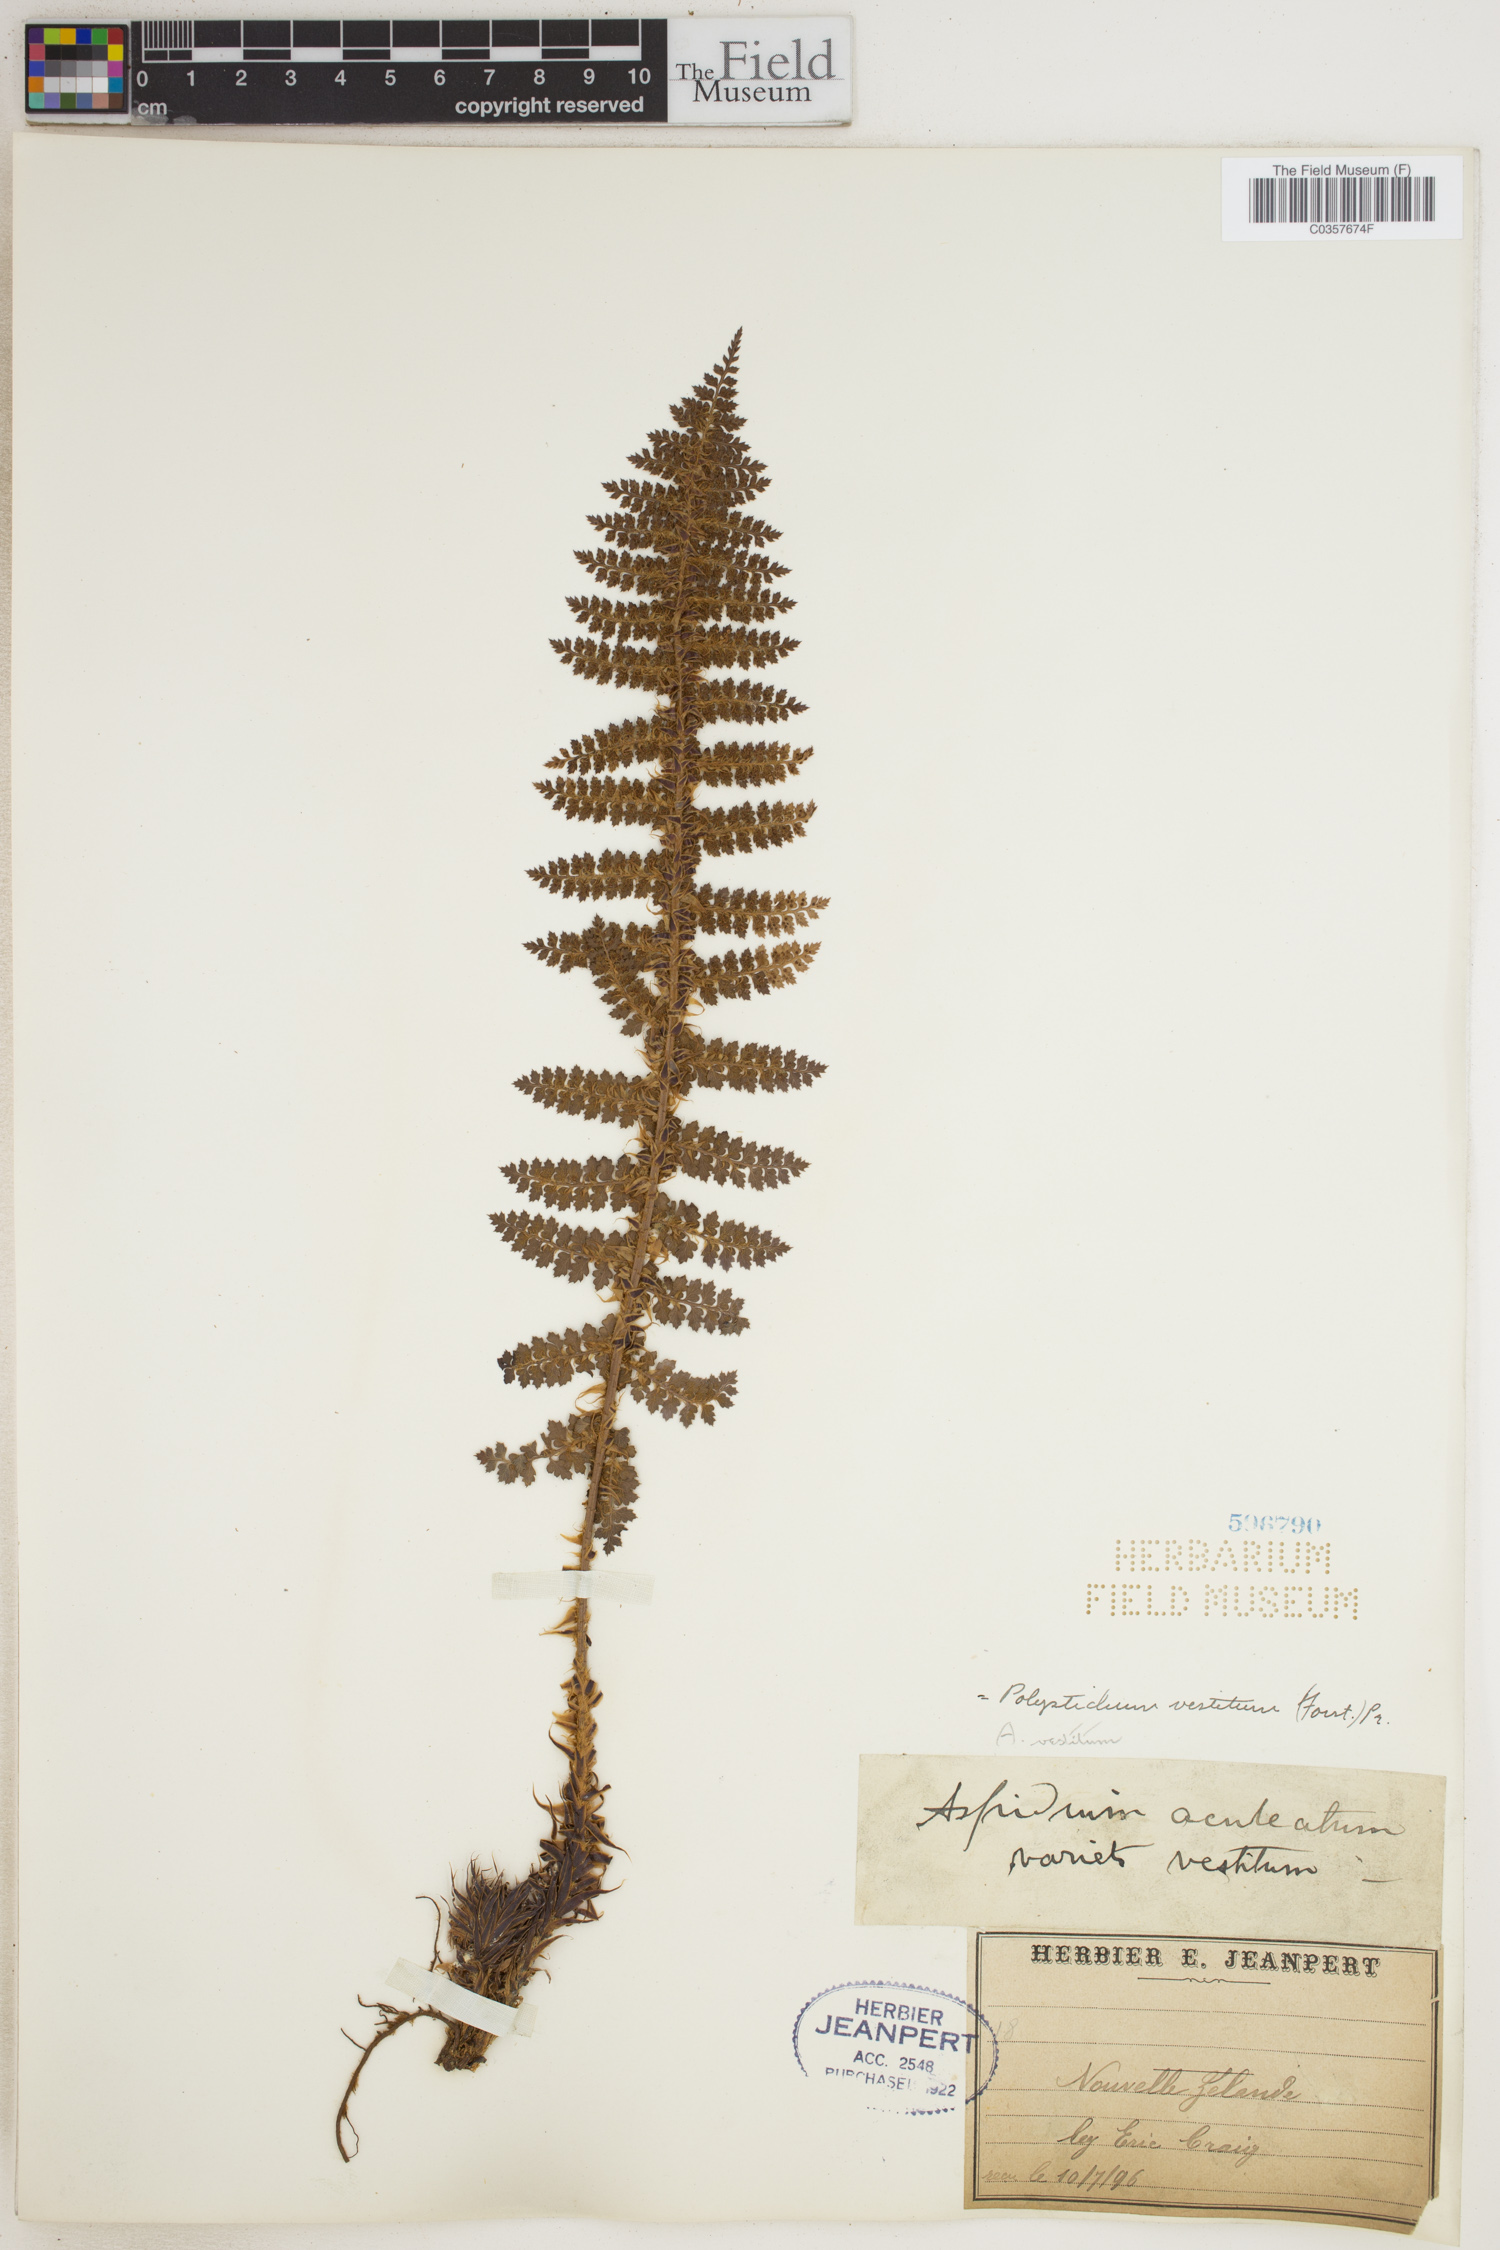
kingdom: Plantae
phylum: Tracheophyta
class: Polypodiopsida
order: Polypodiales
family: Dryopteridaceae
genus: Polystichum
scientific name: Polystichum vestitum
